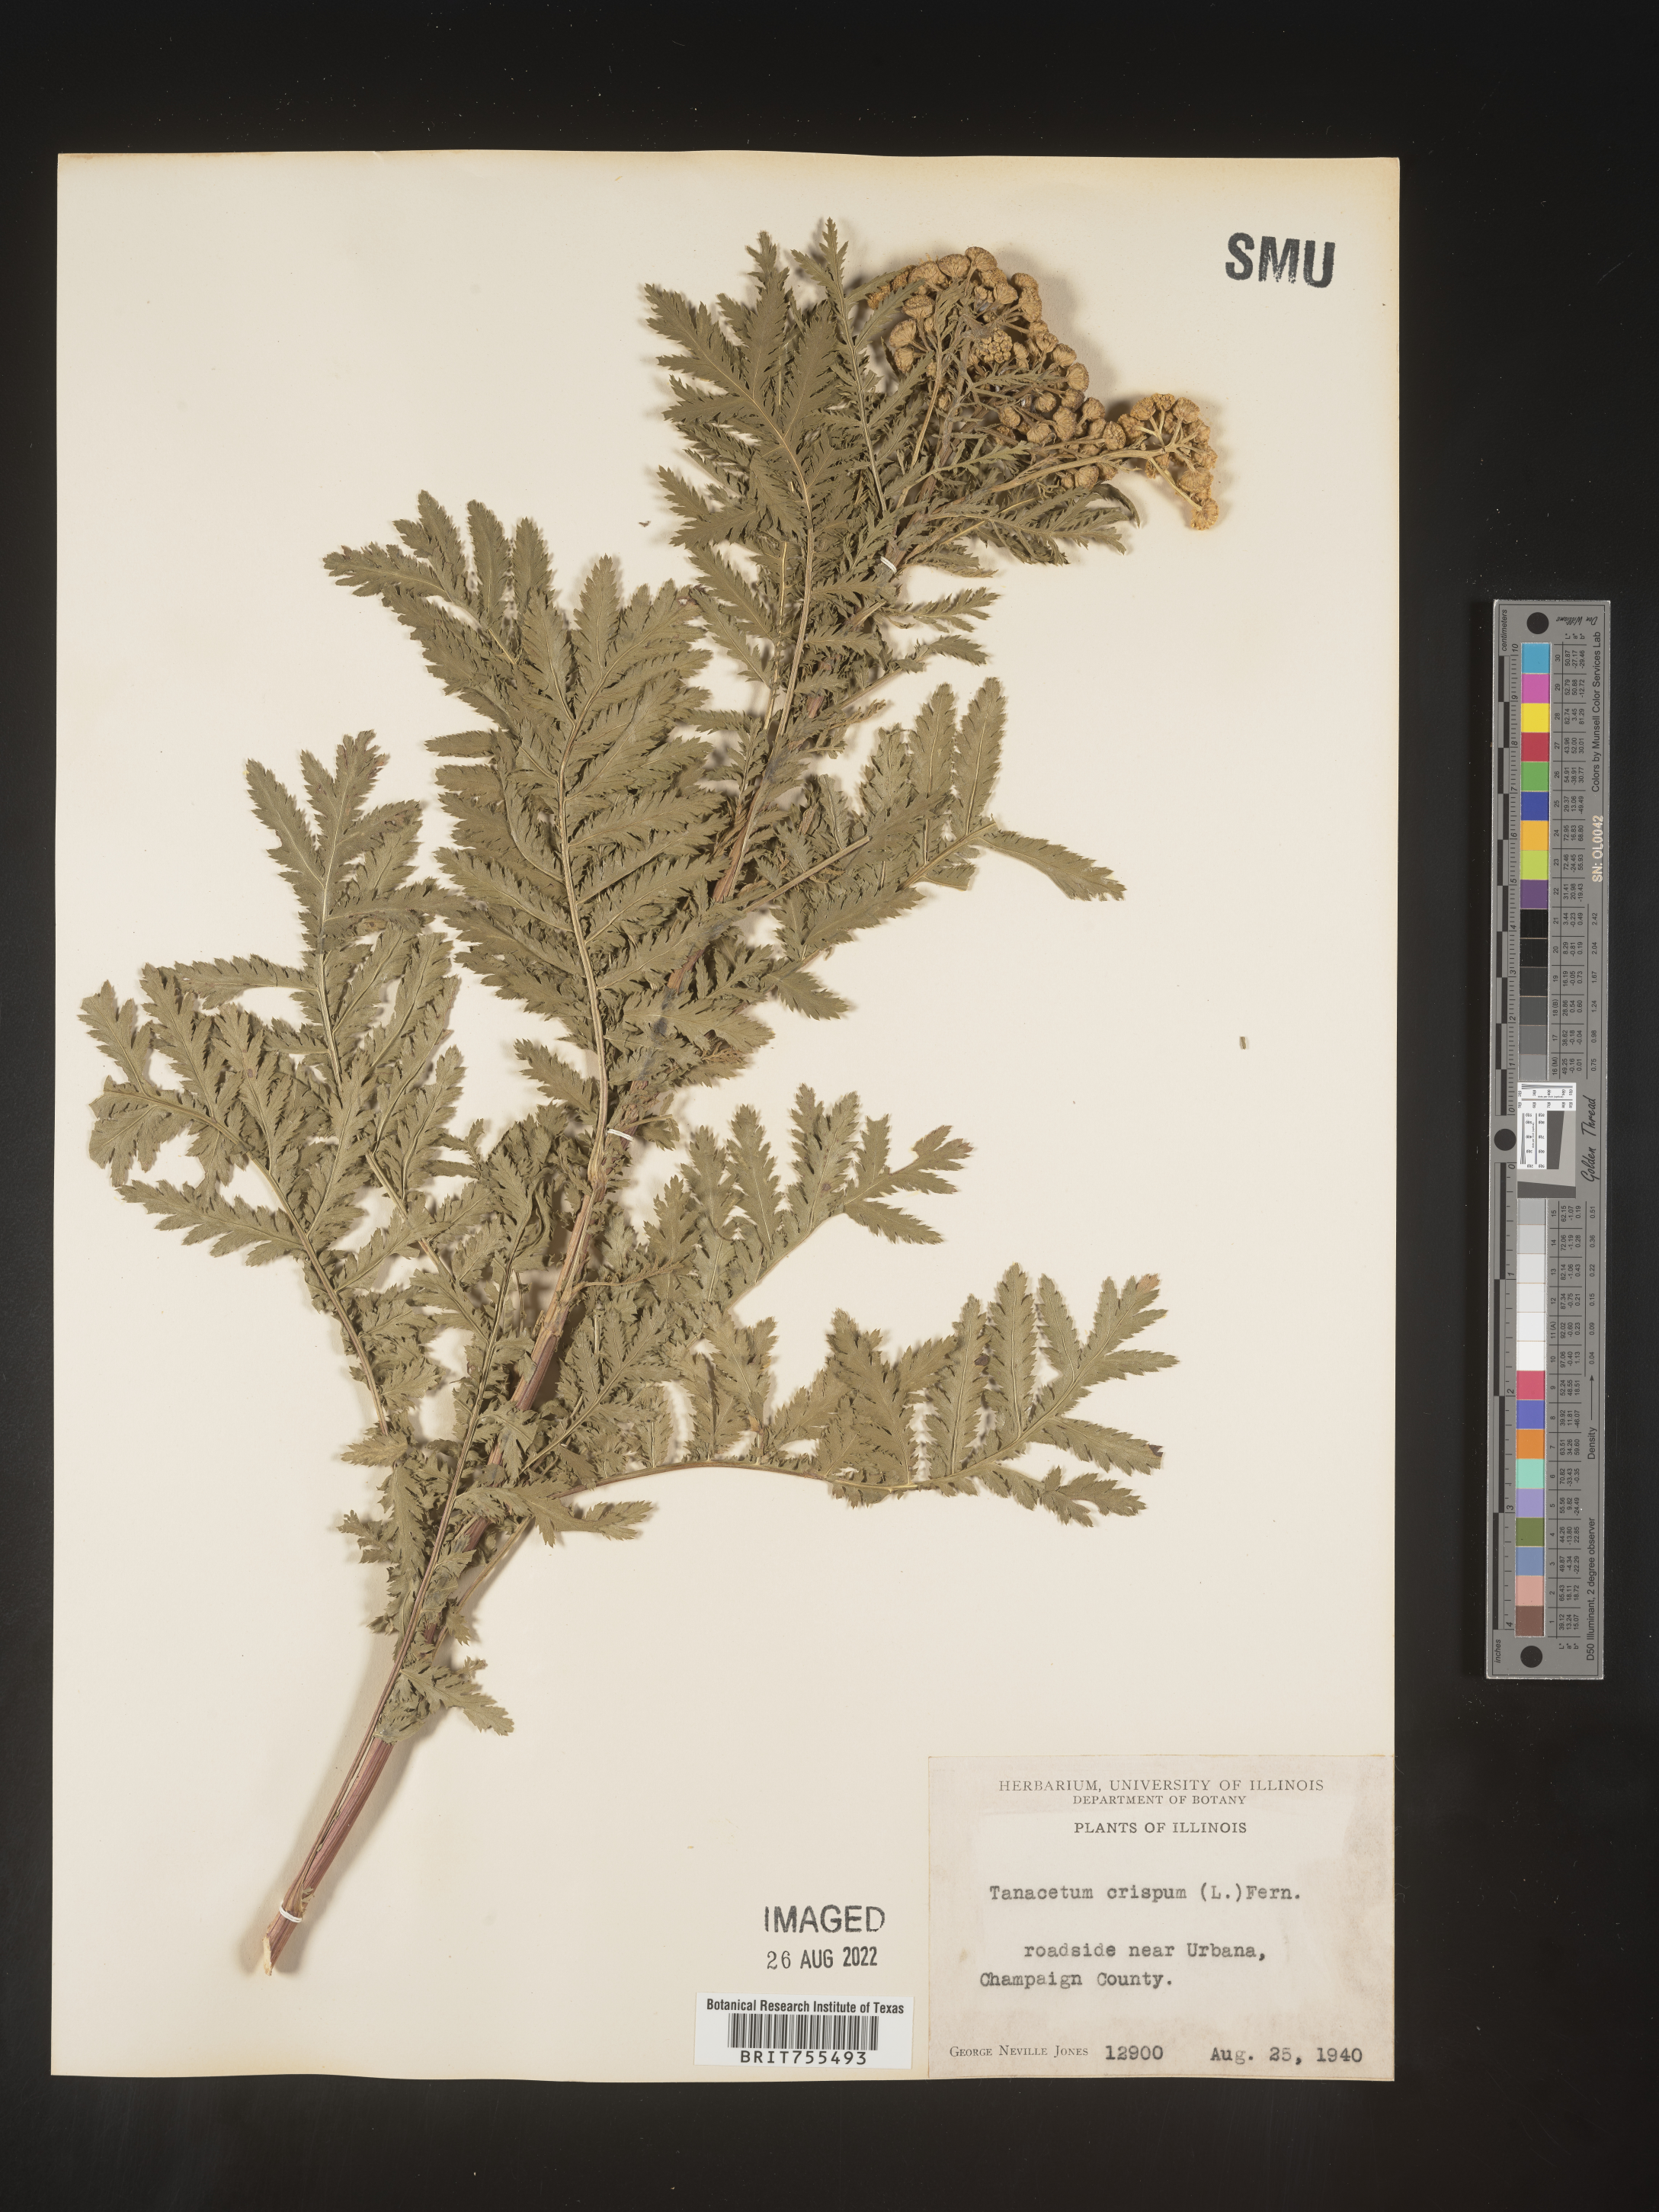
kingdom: Plantae
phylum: Tracheophyta
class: Magnoliopsida
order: Asterales
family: Asteraceae
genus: Tanacetum
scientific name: Tanacetum vulgare
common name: Common tansy
